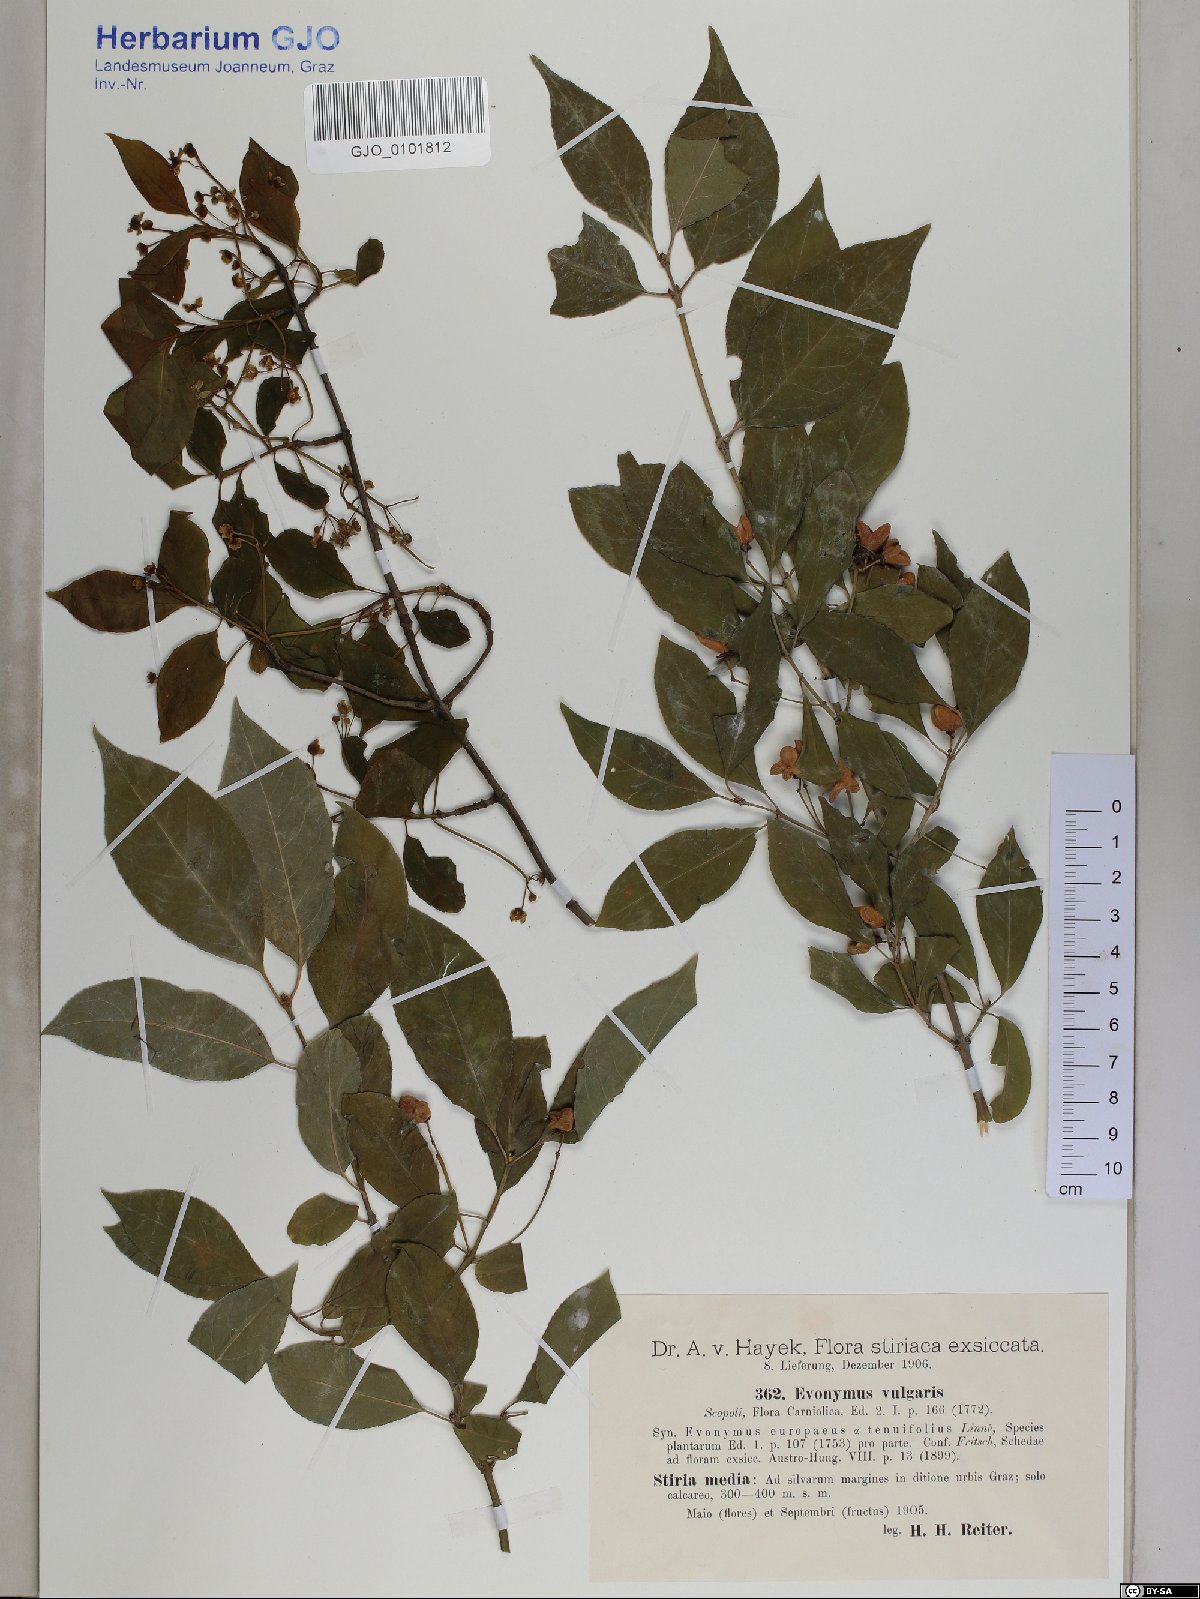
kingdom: Plantae
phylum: Tracheophyta
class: Magnoliopsida
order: Celastrales
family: Celastraceae
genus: Euonymus
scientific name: Euonymus europaeus
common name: Spindle
